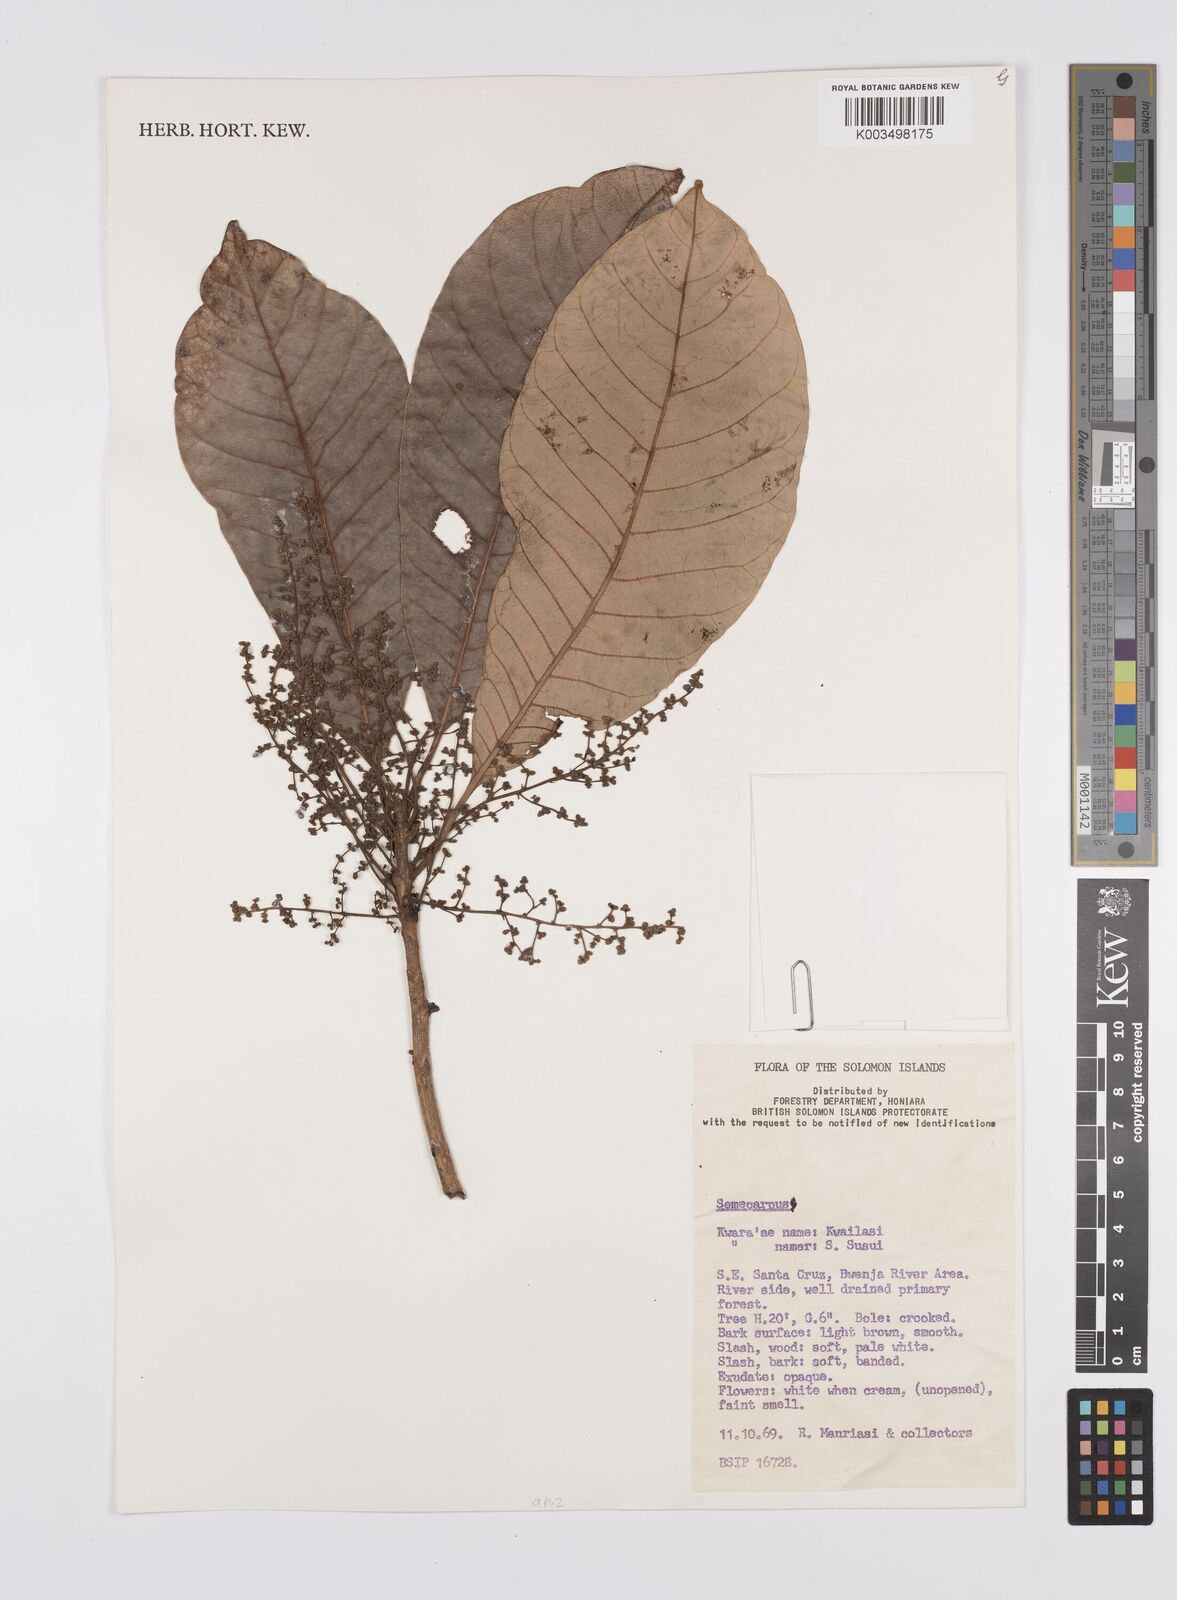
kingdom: Plantae
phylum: Tracheophyta
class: Magnoliopsida
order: Sapindales
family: Anacardiaceae
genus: Semecarpus
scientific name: Semecarpus
